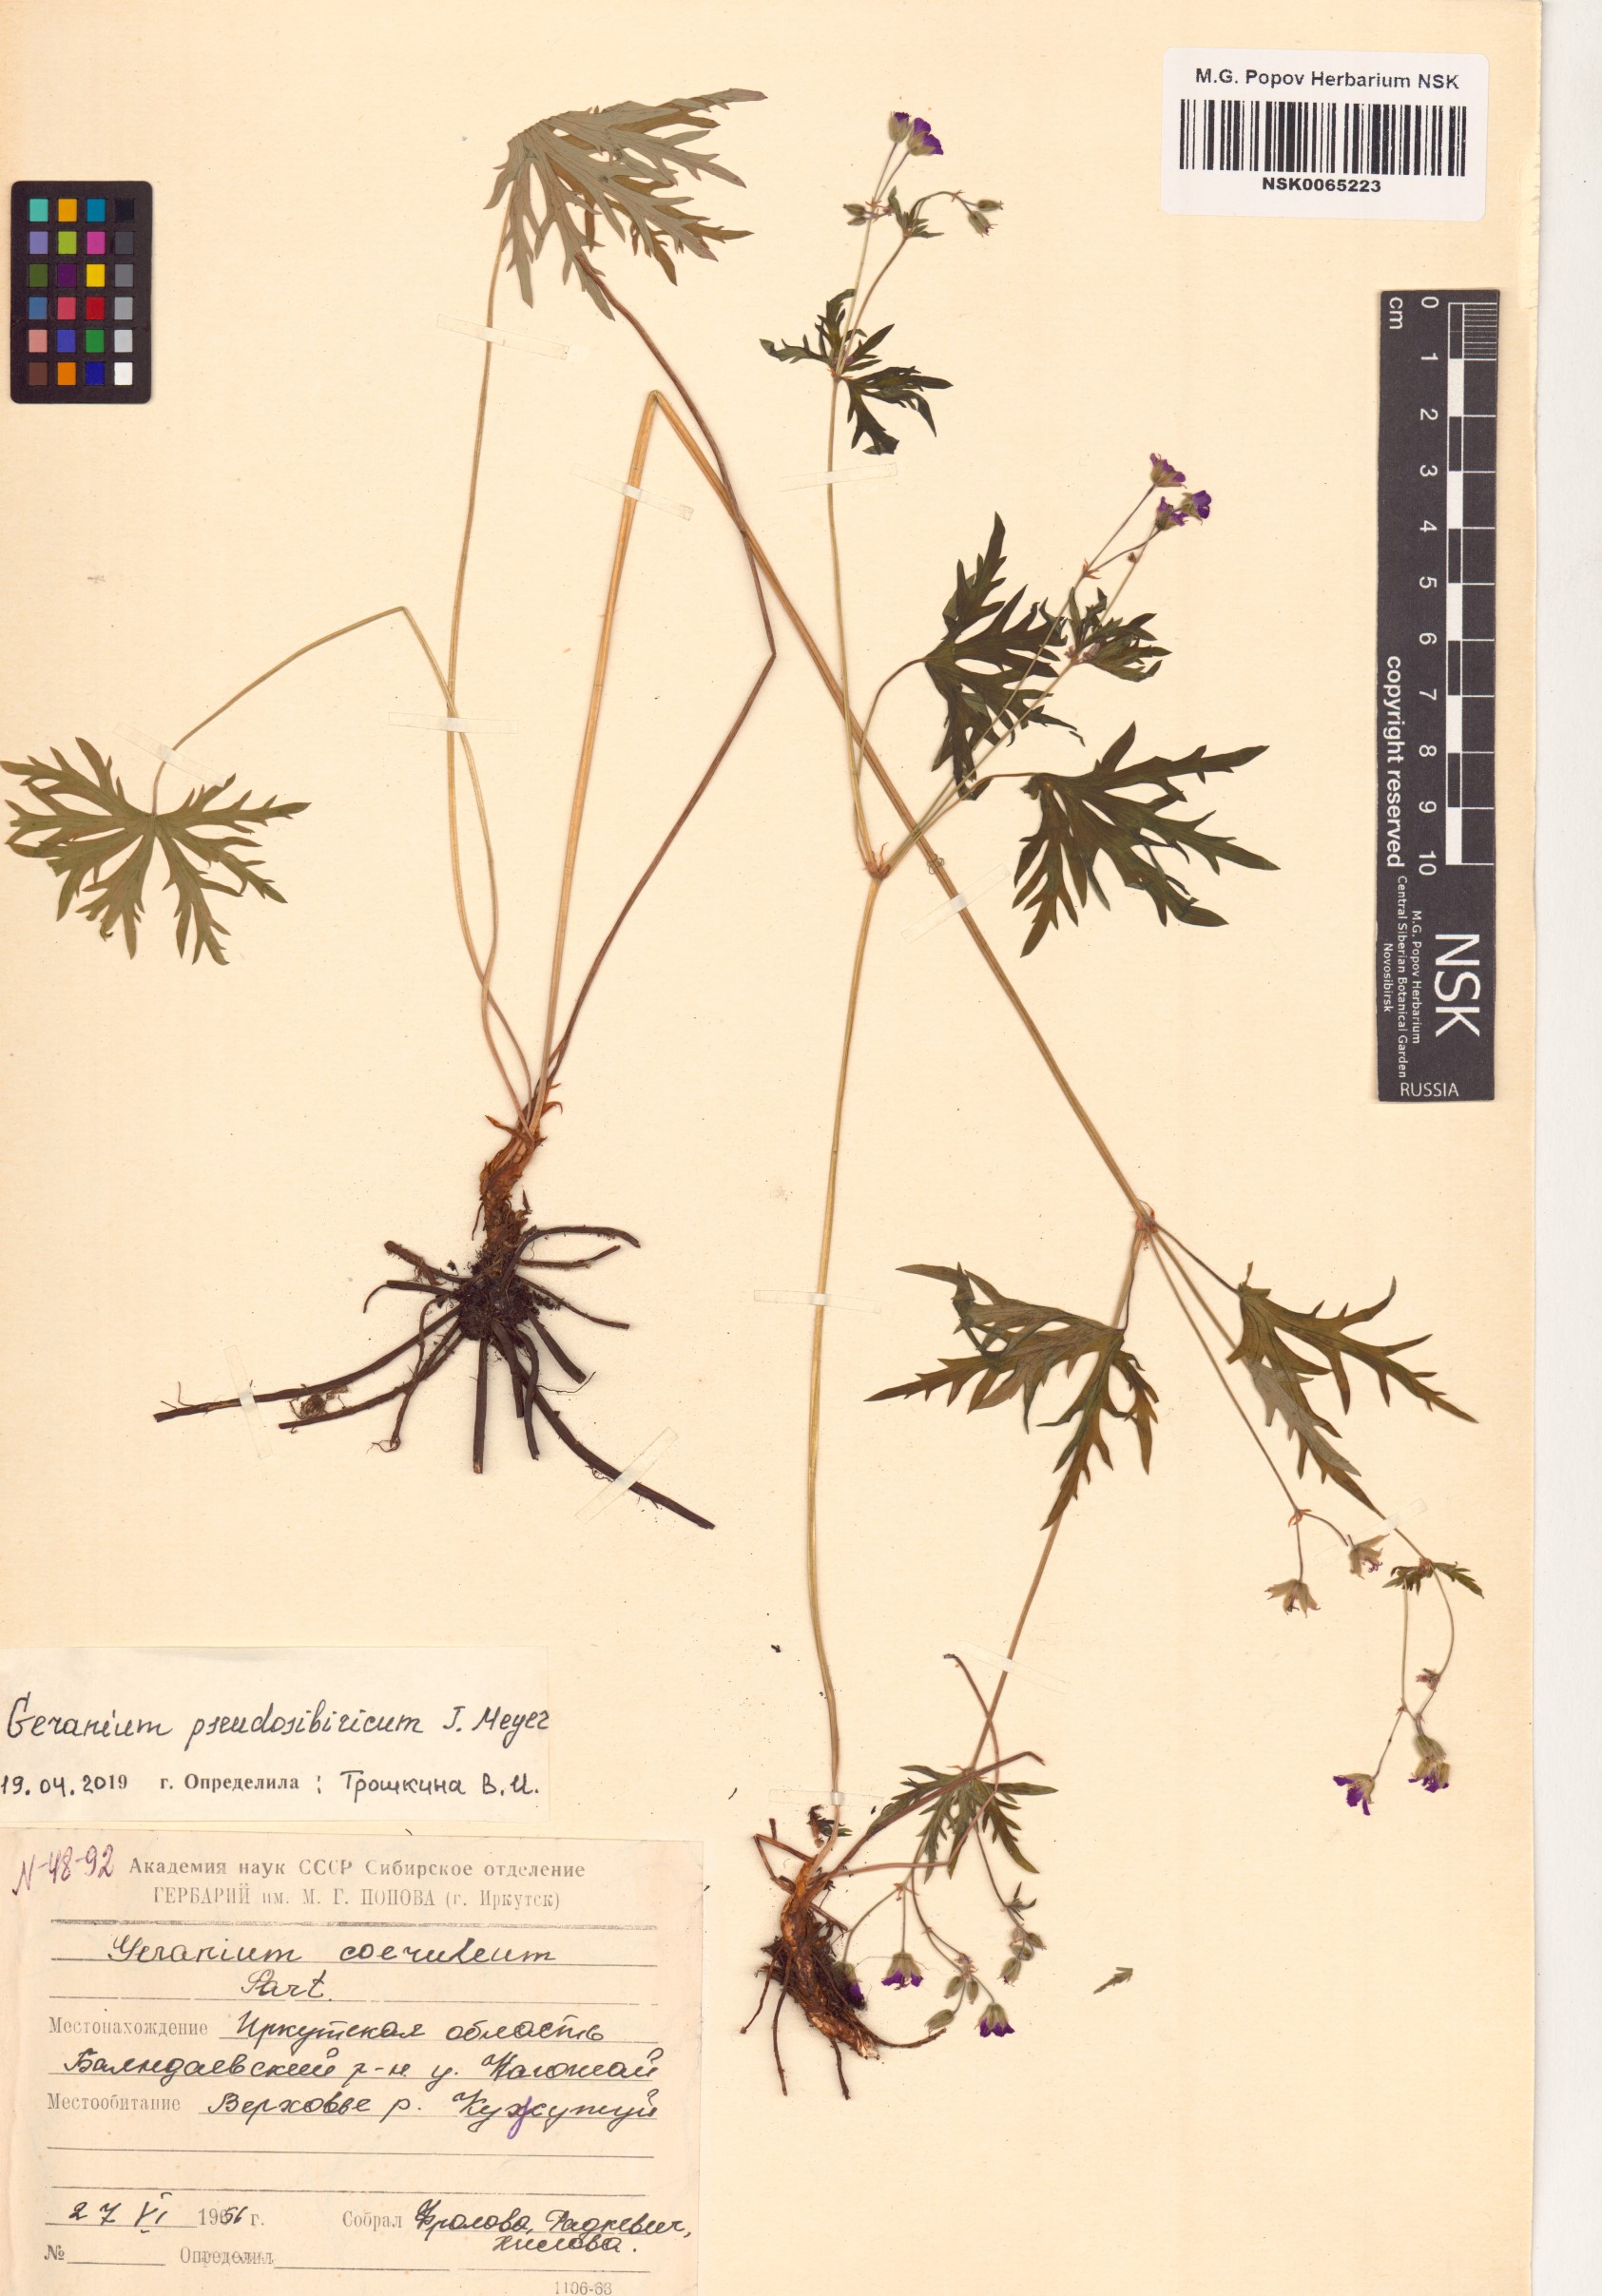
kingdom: Plantae
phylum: Tracheophyta
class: Magnoliopsida
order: Geraniales
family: Geraniaceae
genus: Geranium
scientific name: Geranium pseudosibiricum
